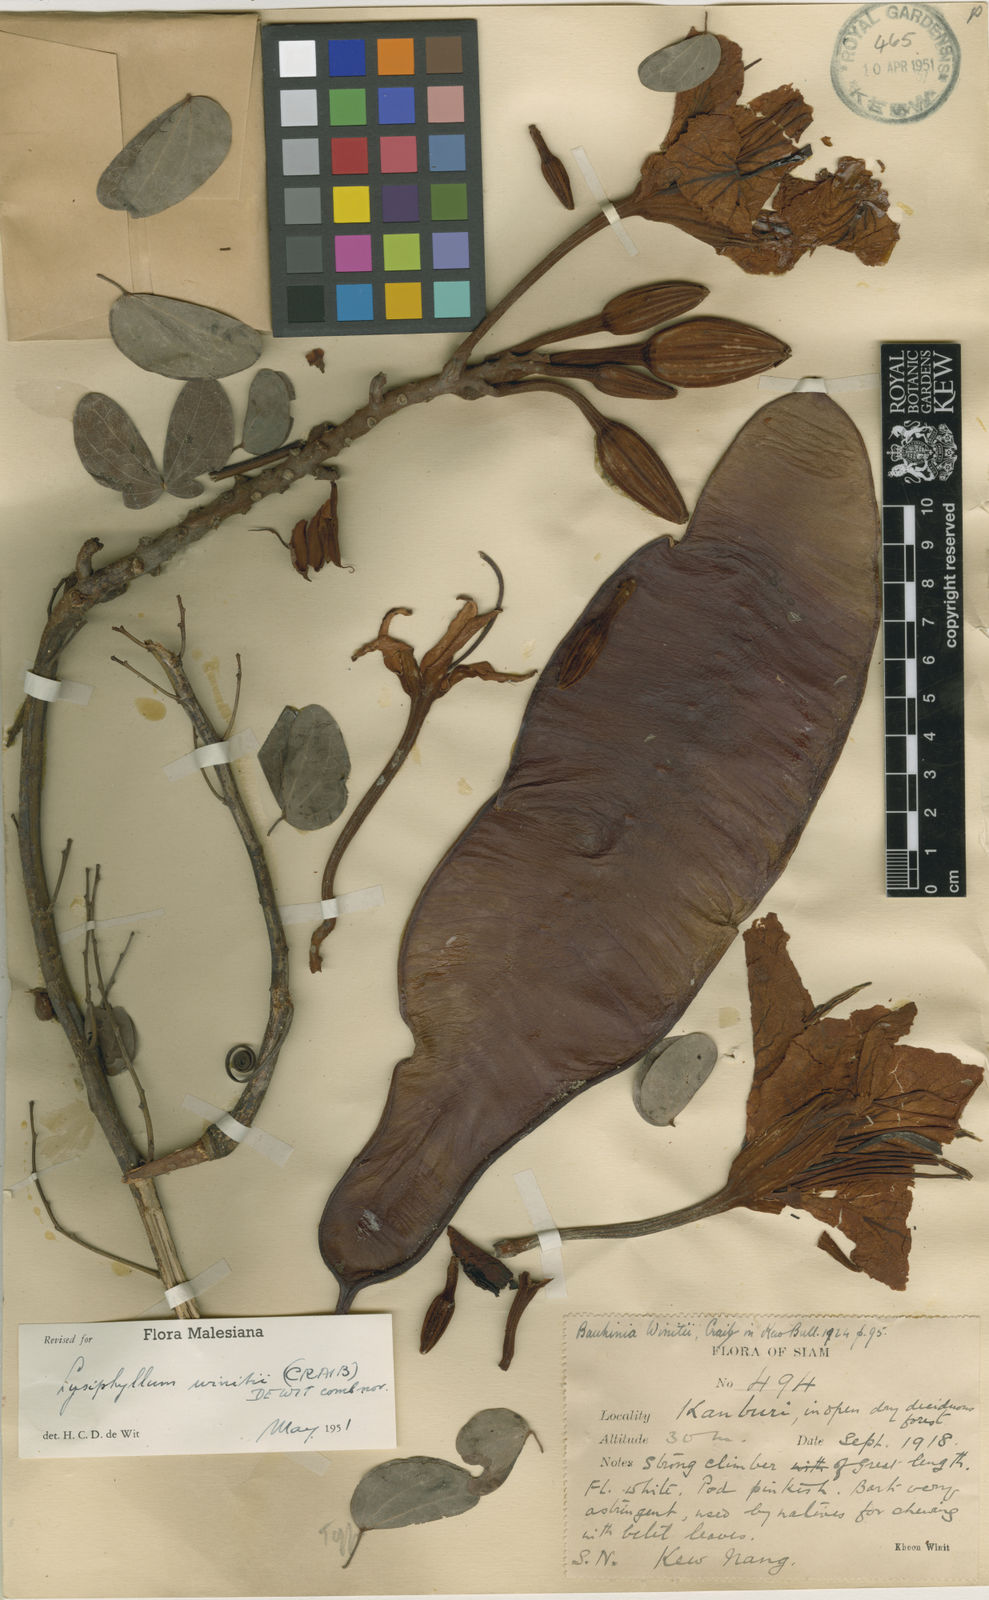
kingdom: Plantae
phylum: Tracheophyta
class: Magnoliopsida
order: Fabales
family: Fabaceae
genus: Lysiphyllum
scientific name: Lysiphyllum winitii
